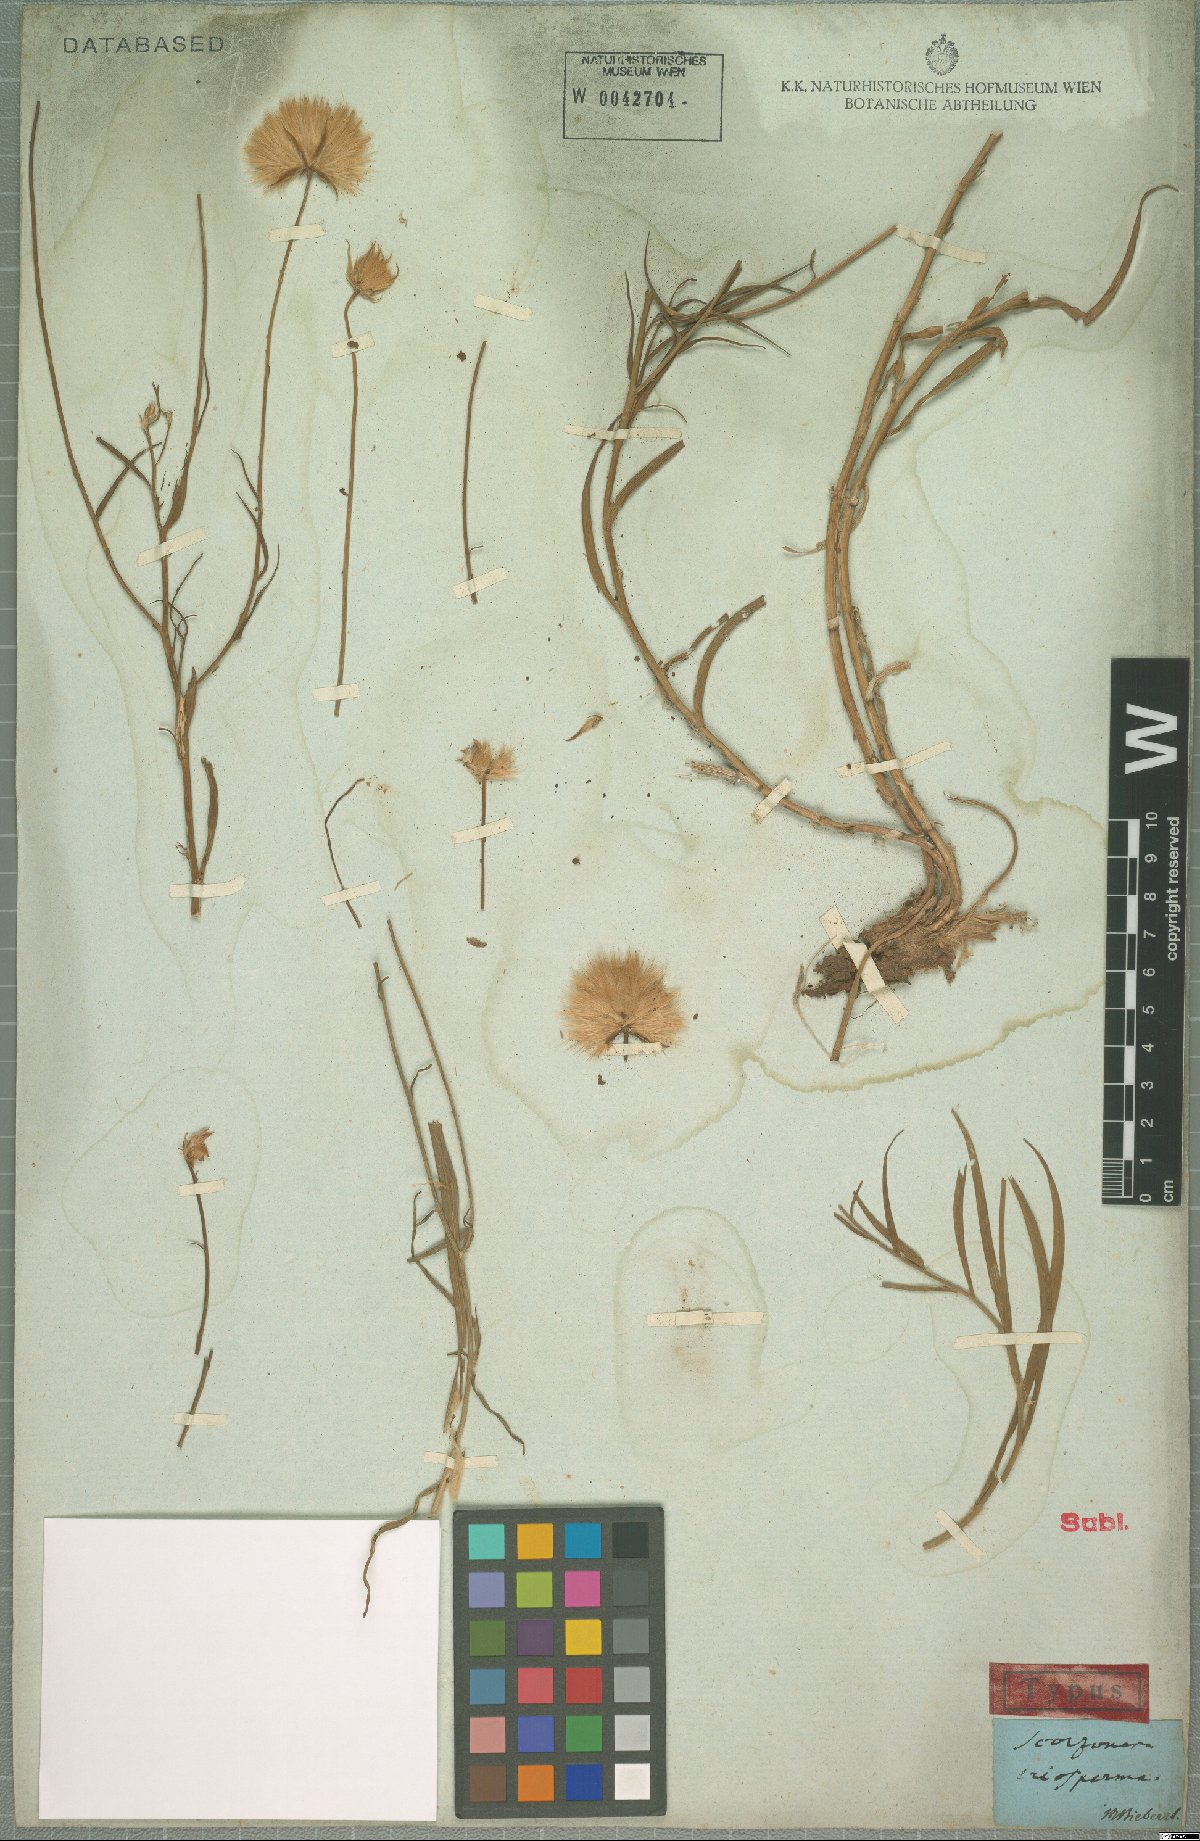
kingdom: Plantae
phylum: Tracheophyta
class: Magnoliopsida
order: Asterales
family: Asteraceae
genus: Gelasia
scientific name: Gelasia biebersteinii
